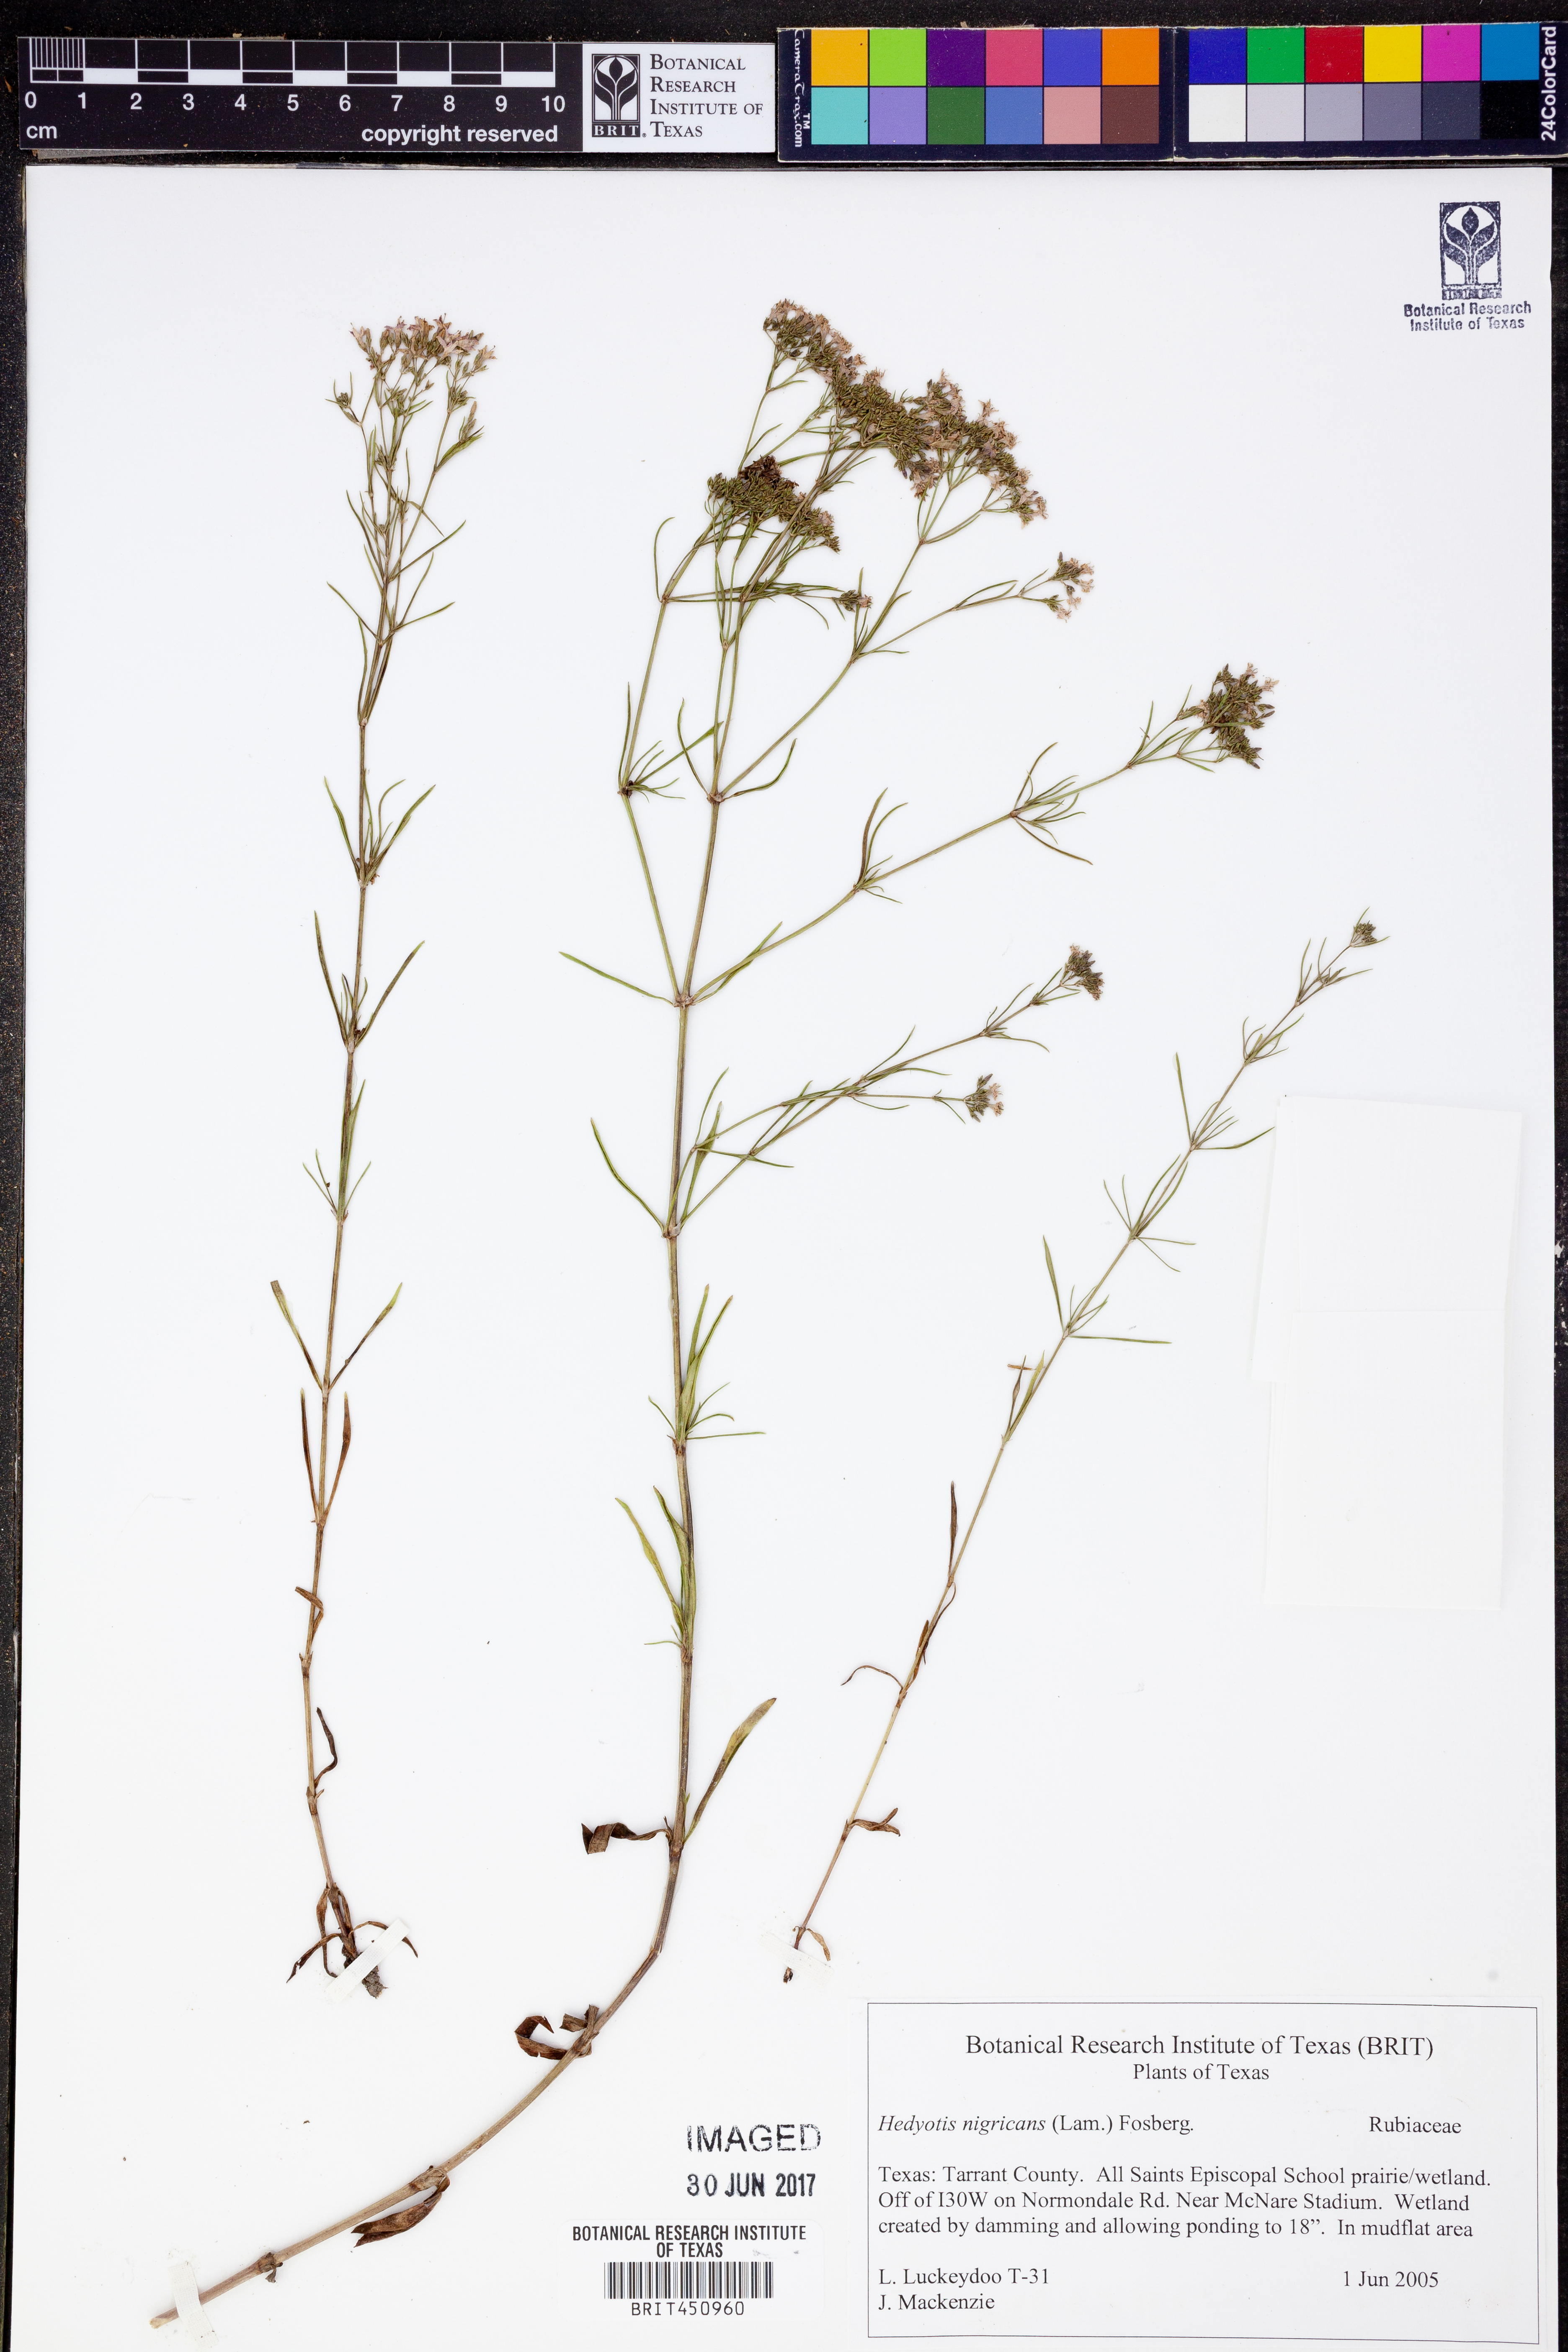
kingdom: Plantae
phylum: Tracheophyta
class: Magnoliopsida
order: Gentianales
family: Rubiaceae
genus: Stenaria
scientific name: Stenaria nigricans
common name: Diamondflowers
